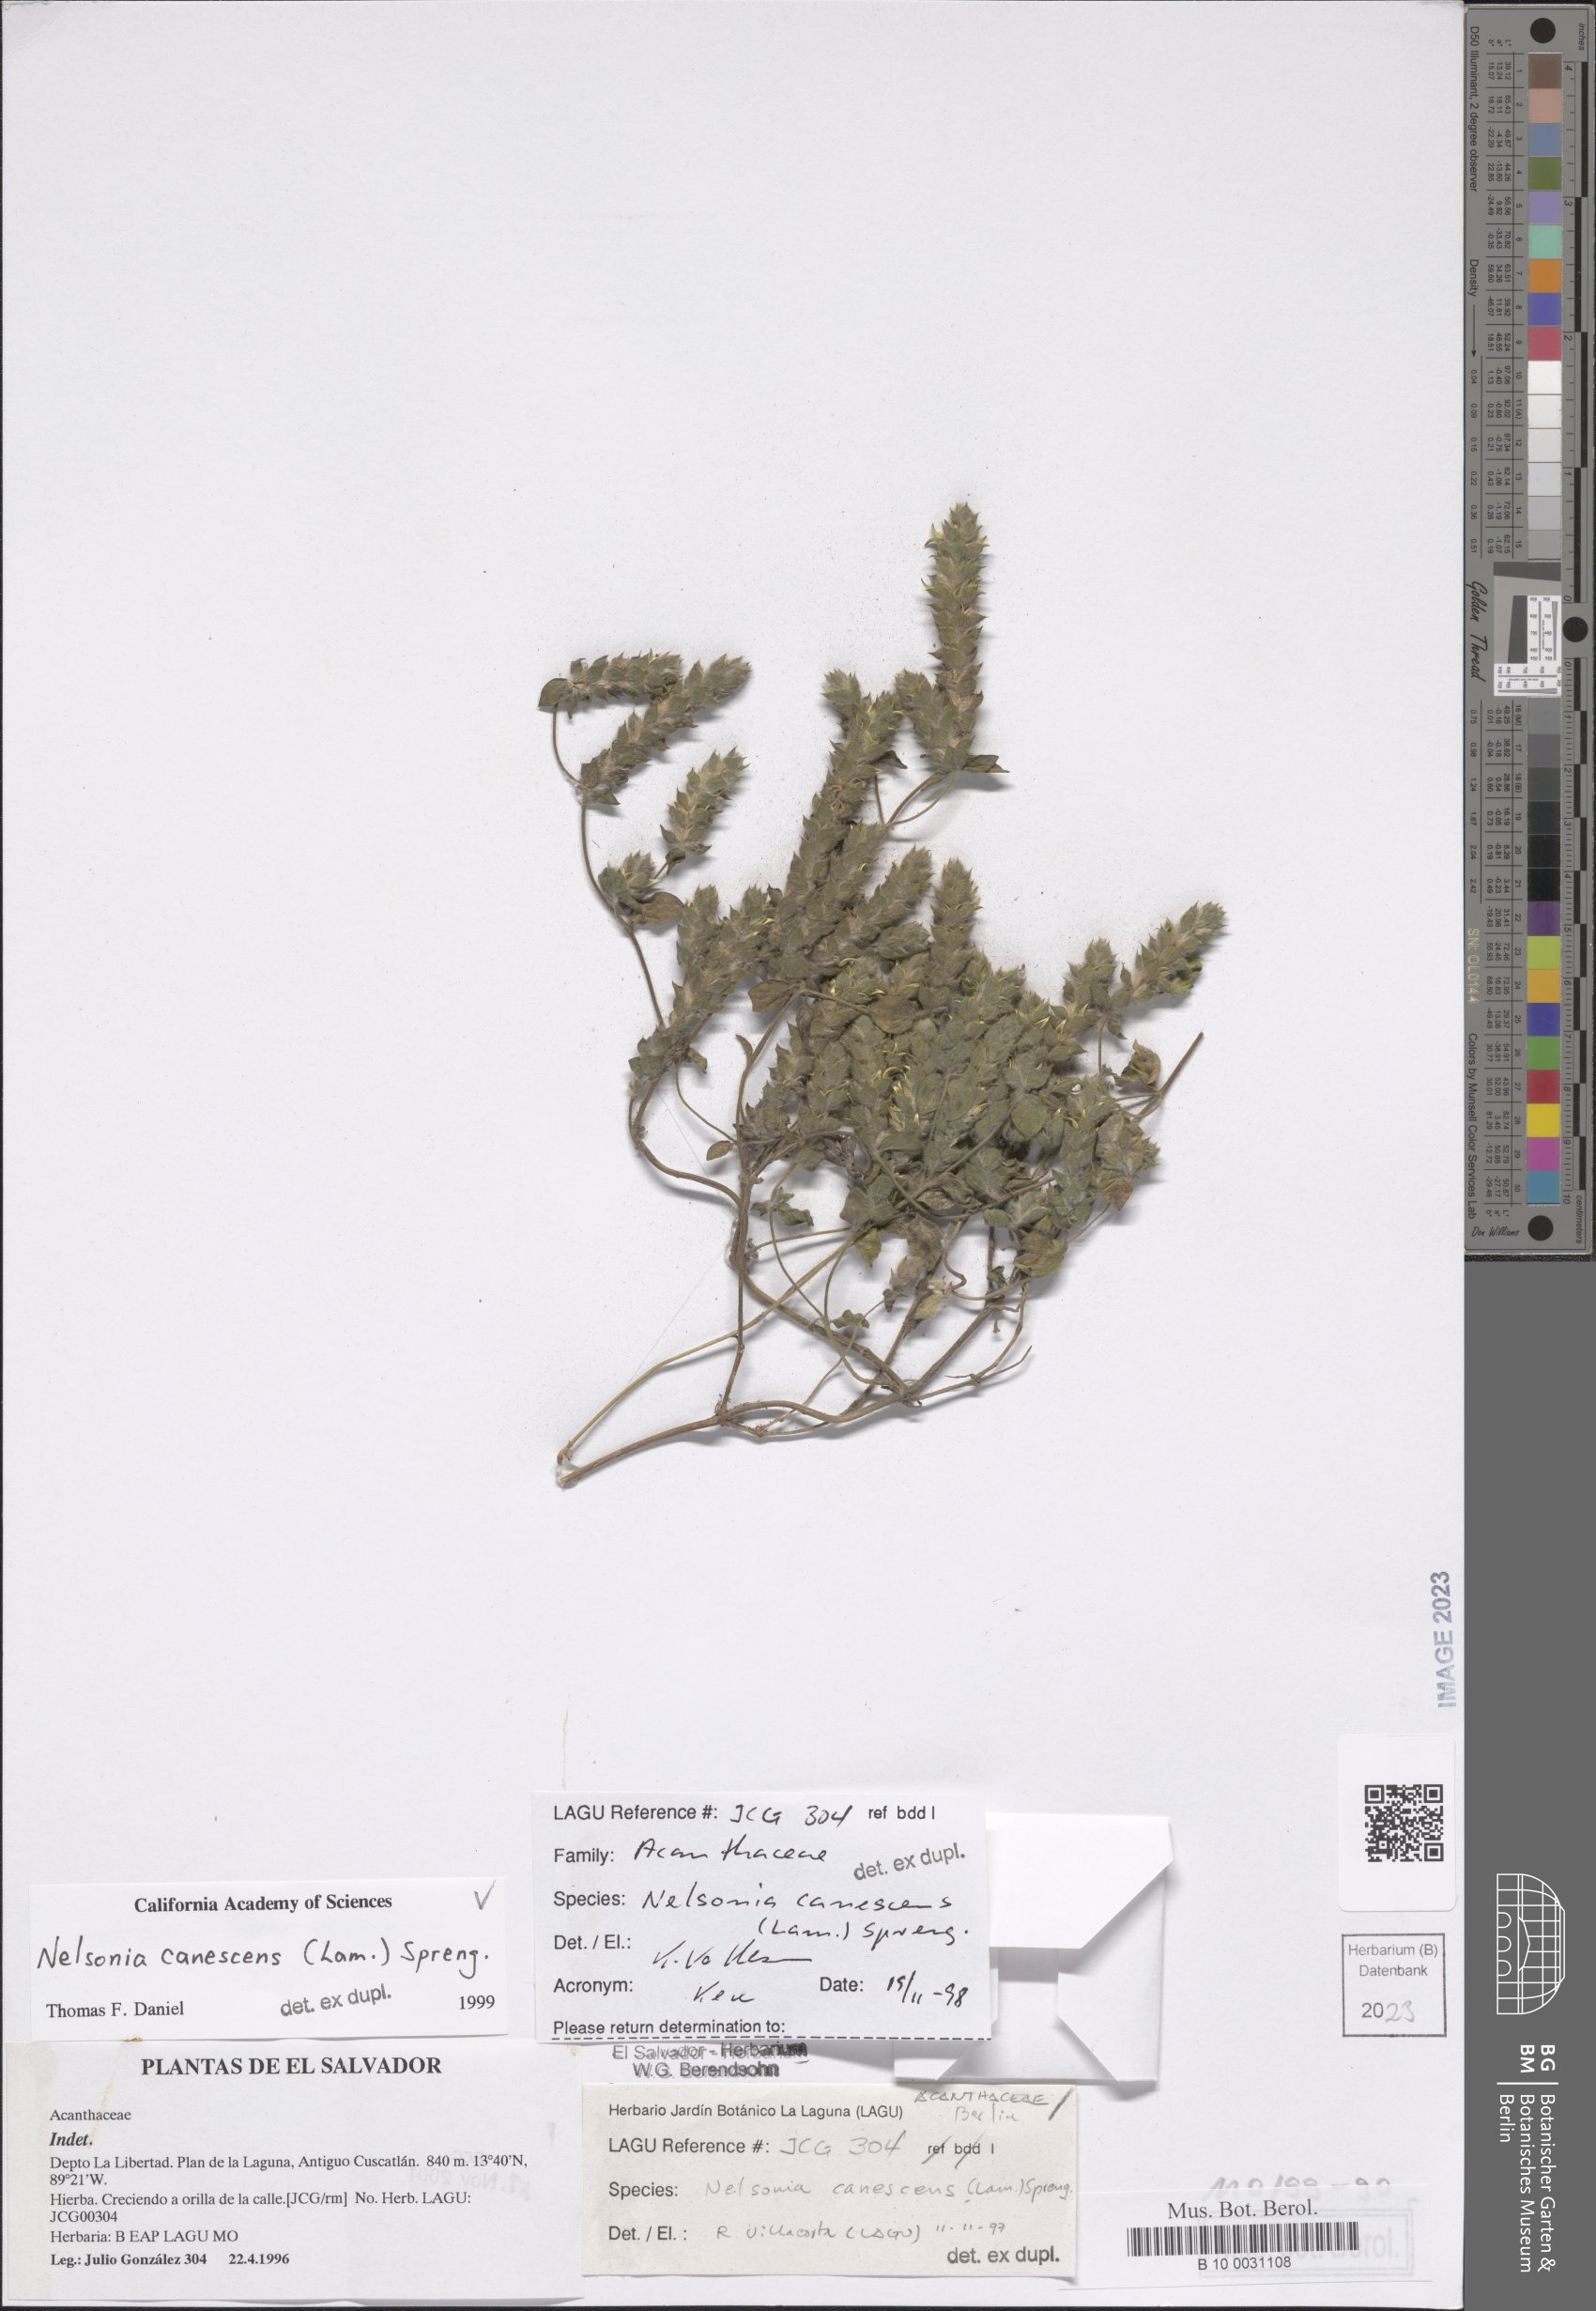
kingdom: Plantae
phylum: Tracheophyta
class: Magnoliopsida
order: Lamiales
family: Acanthaceae
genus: Nelsonia
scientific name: Nelsonia canescens
